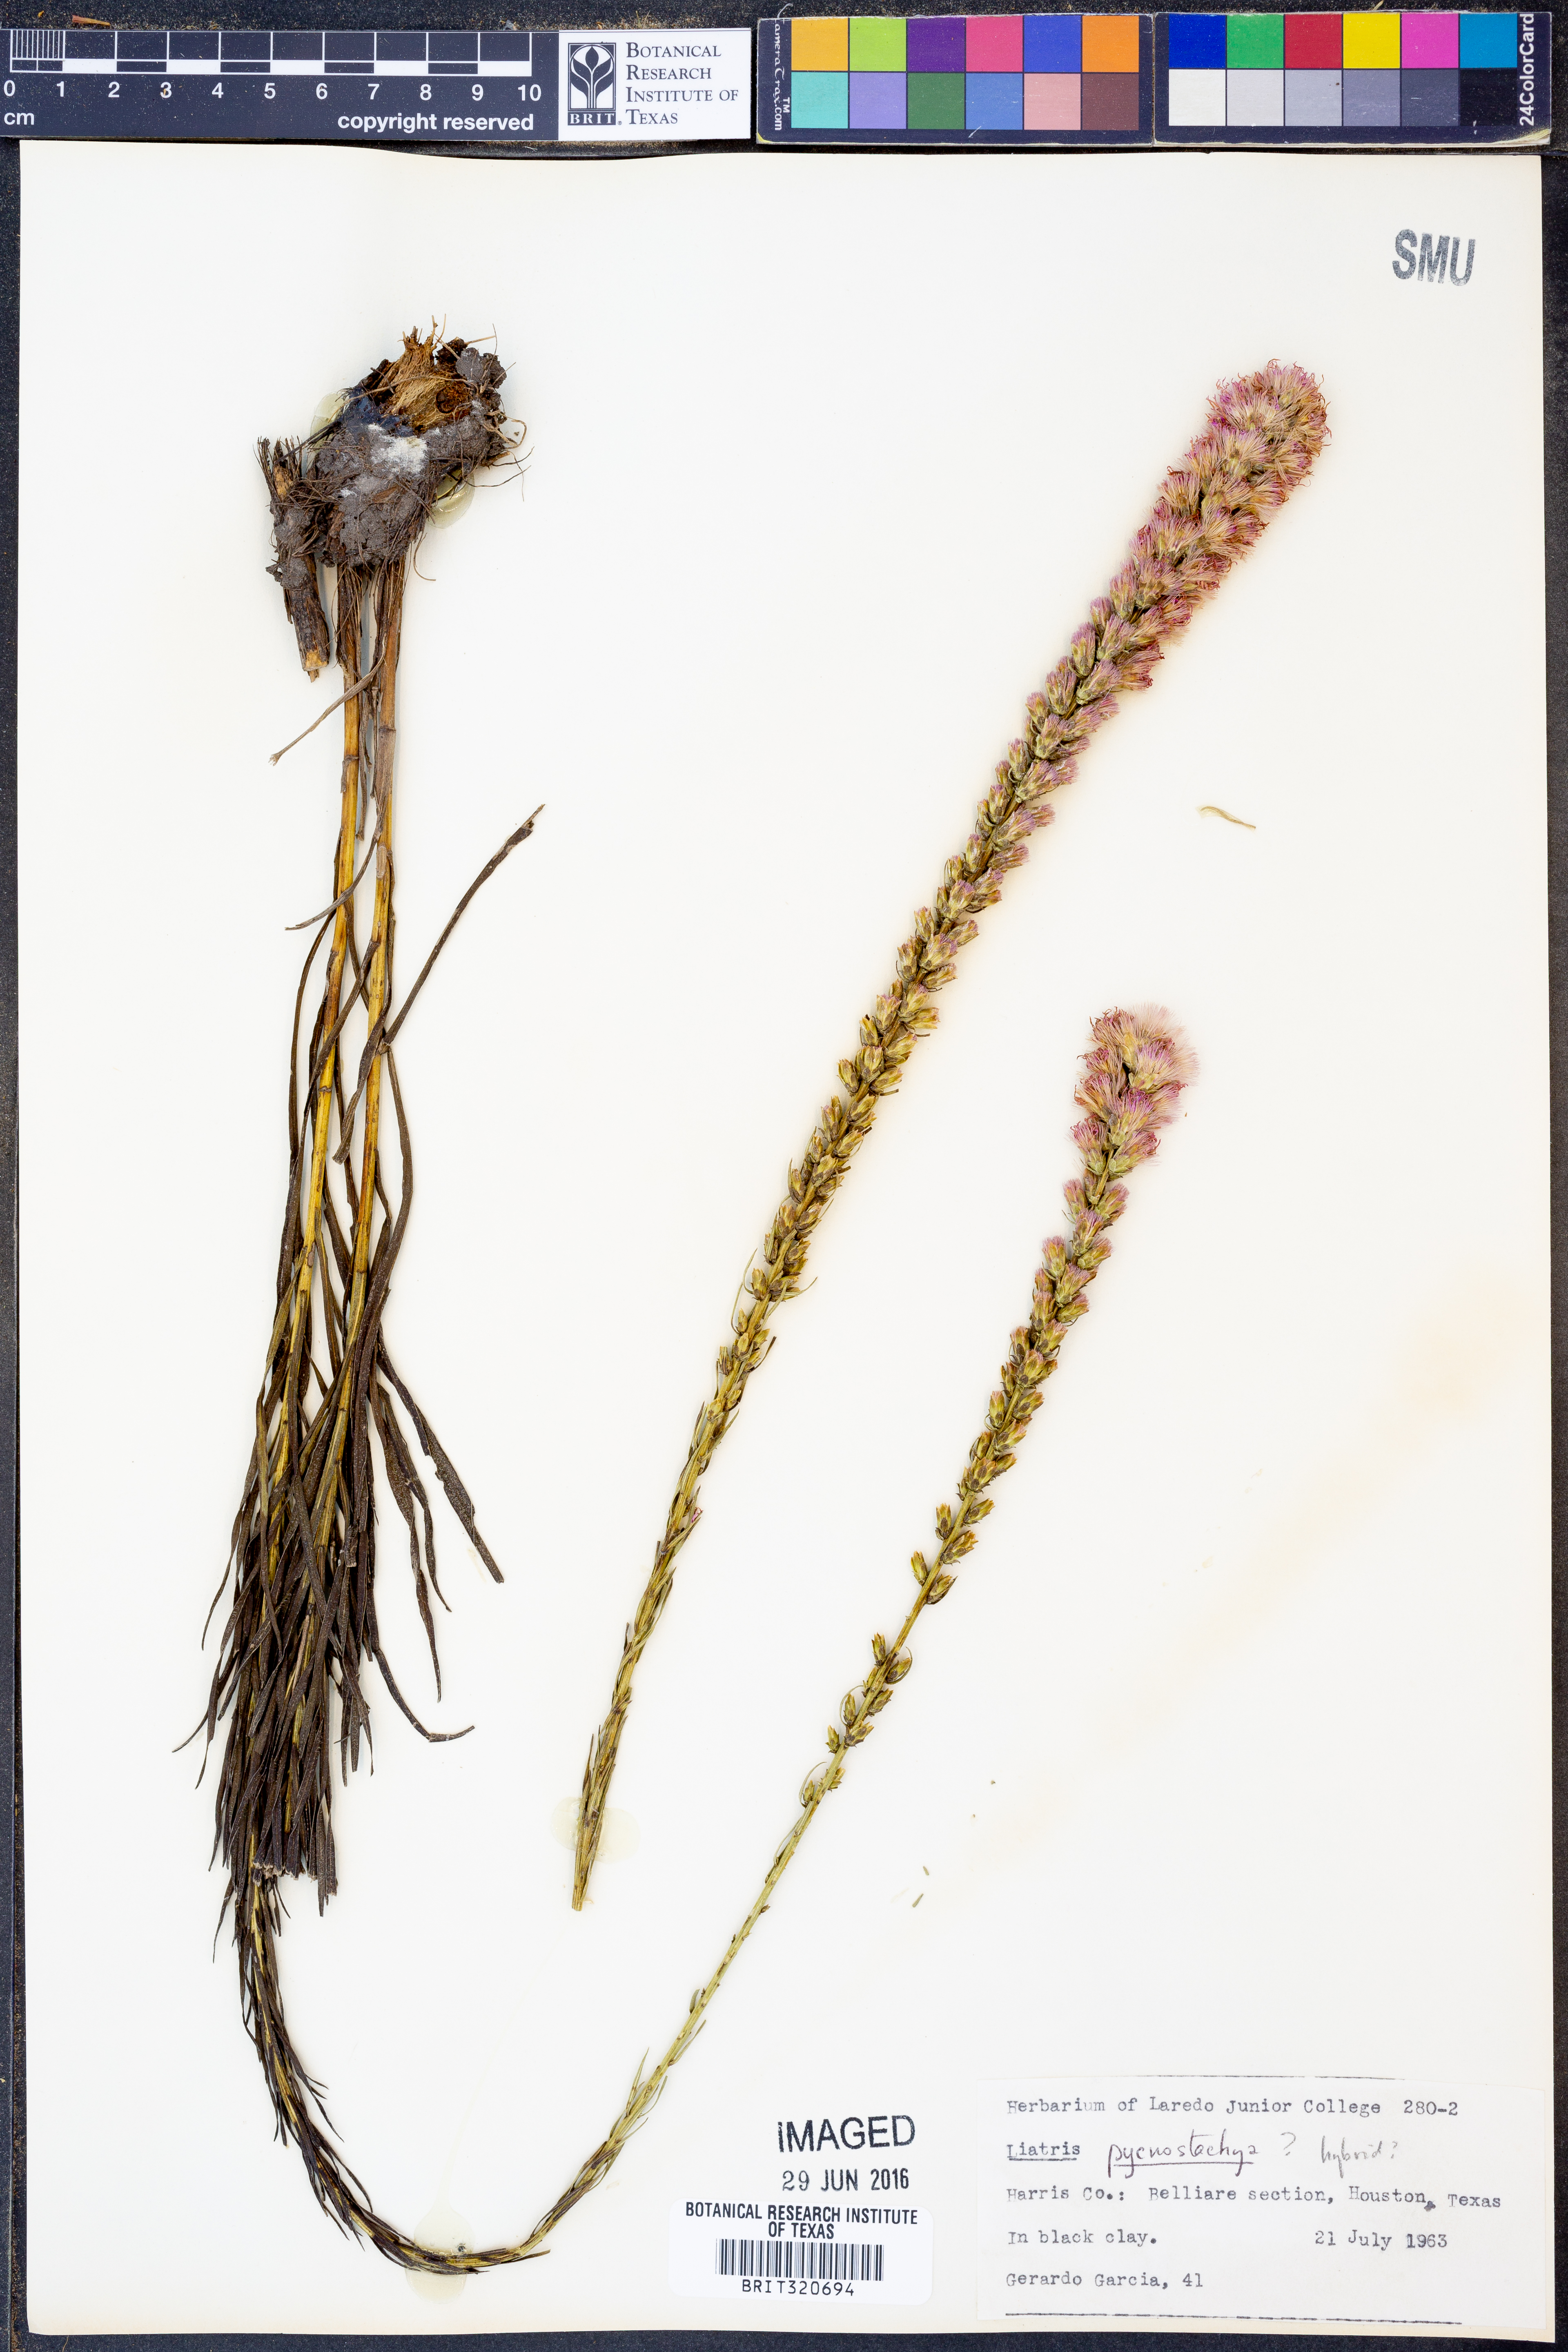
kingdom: Plantae
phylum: Tracheophyta
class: Magnoliopsida
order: Asterales
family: Asteraceae
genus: Liatris
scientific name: Liatris pycnostachya
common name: Cattail gayfeather
